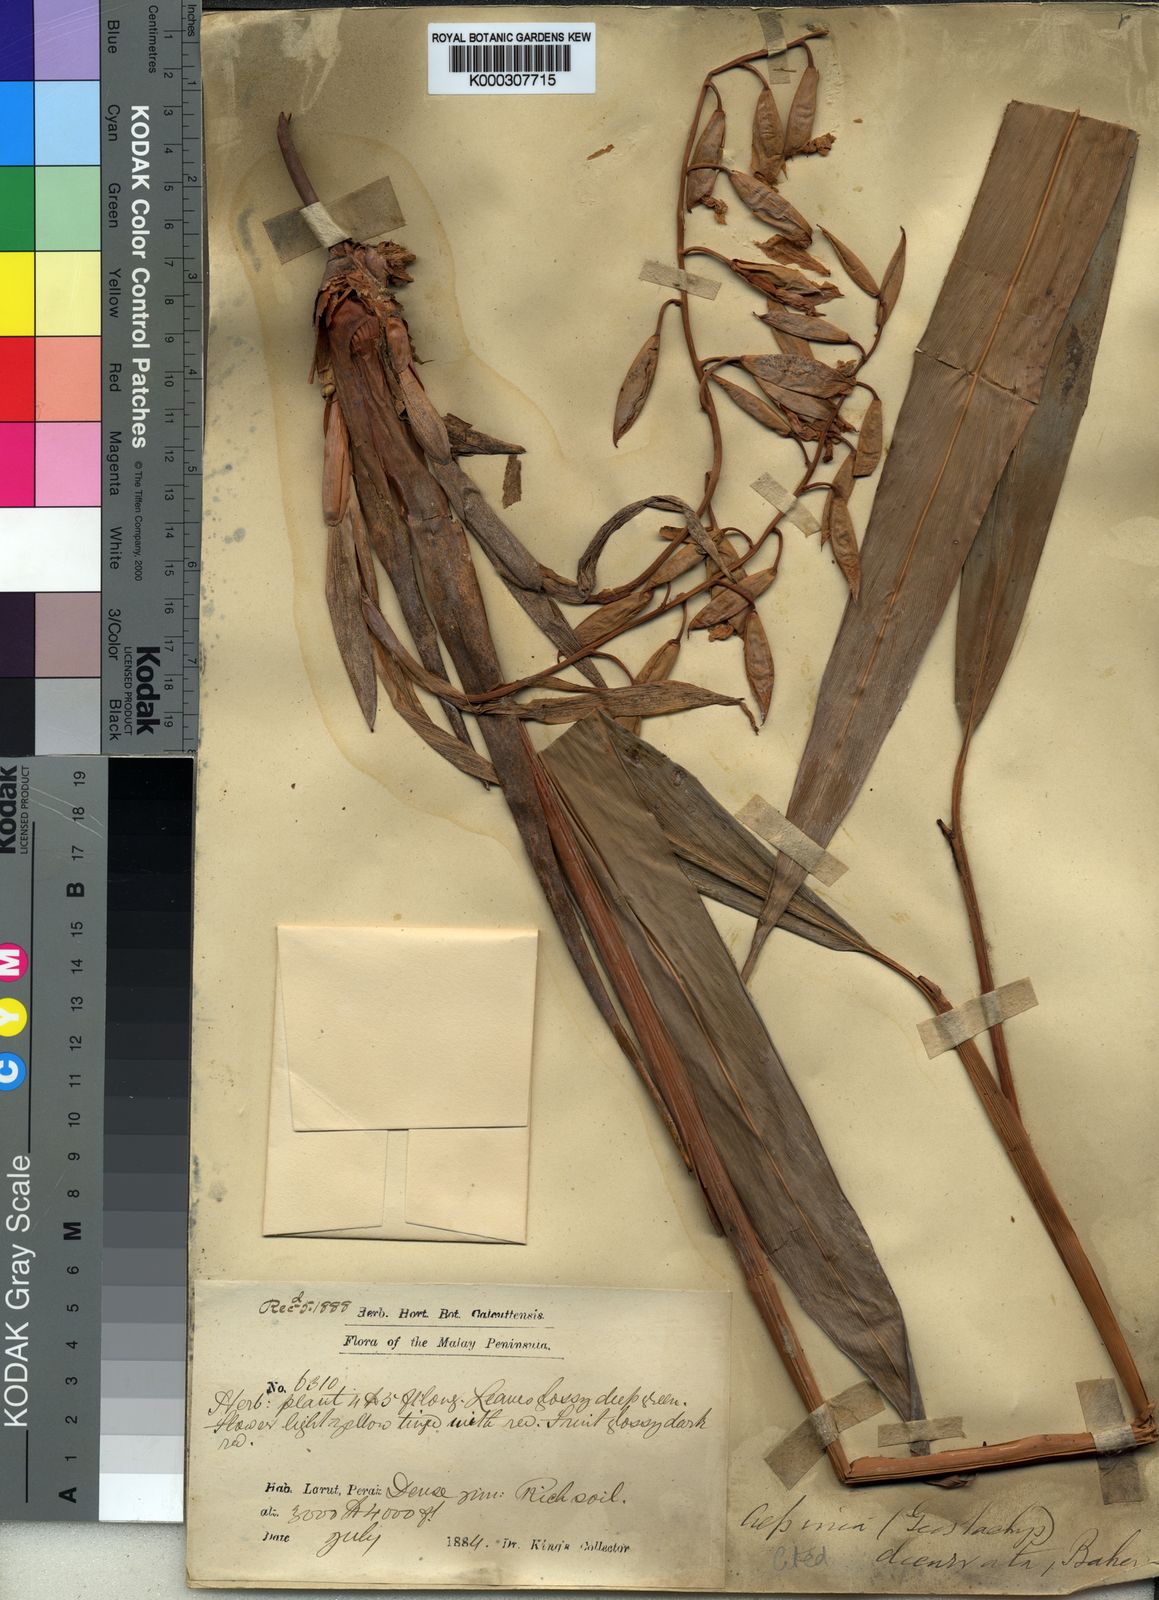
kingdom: Plantae
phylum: Tracheophyta
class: Liliopsida
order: Zingiberales
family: Zingiberaceae
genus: Geostachys
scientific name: Geostachys decurvata
